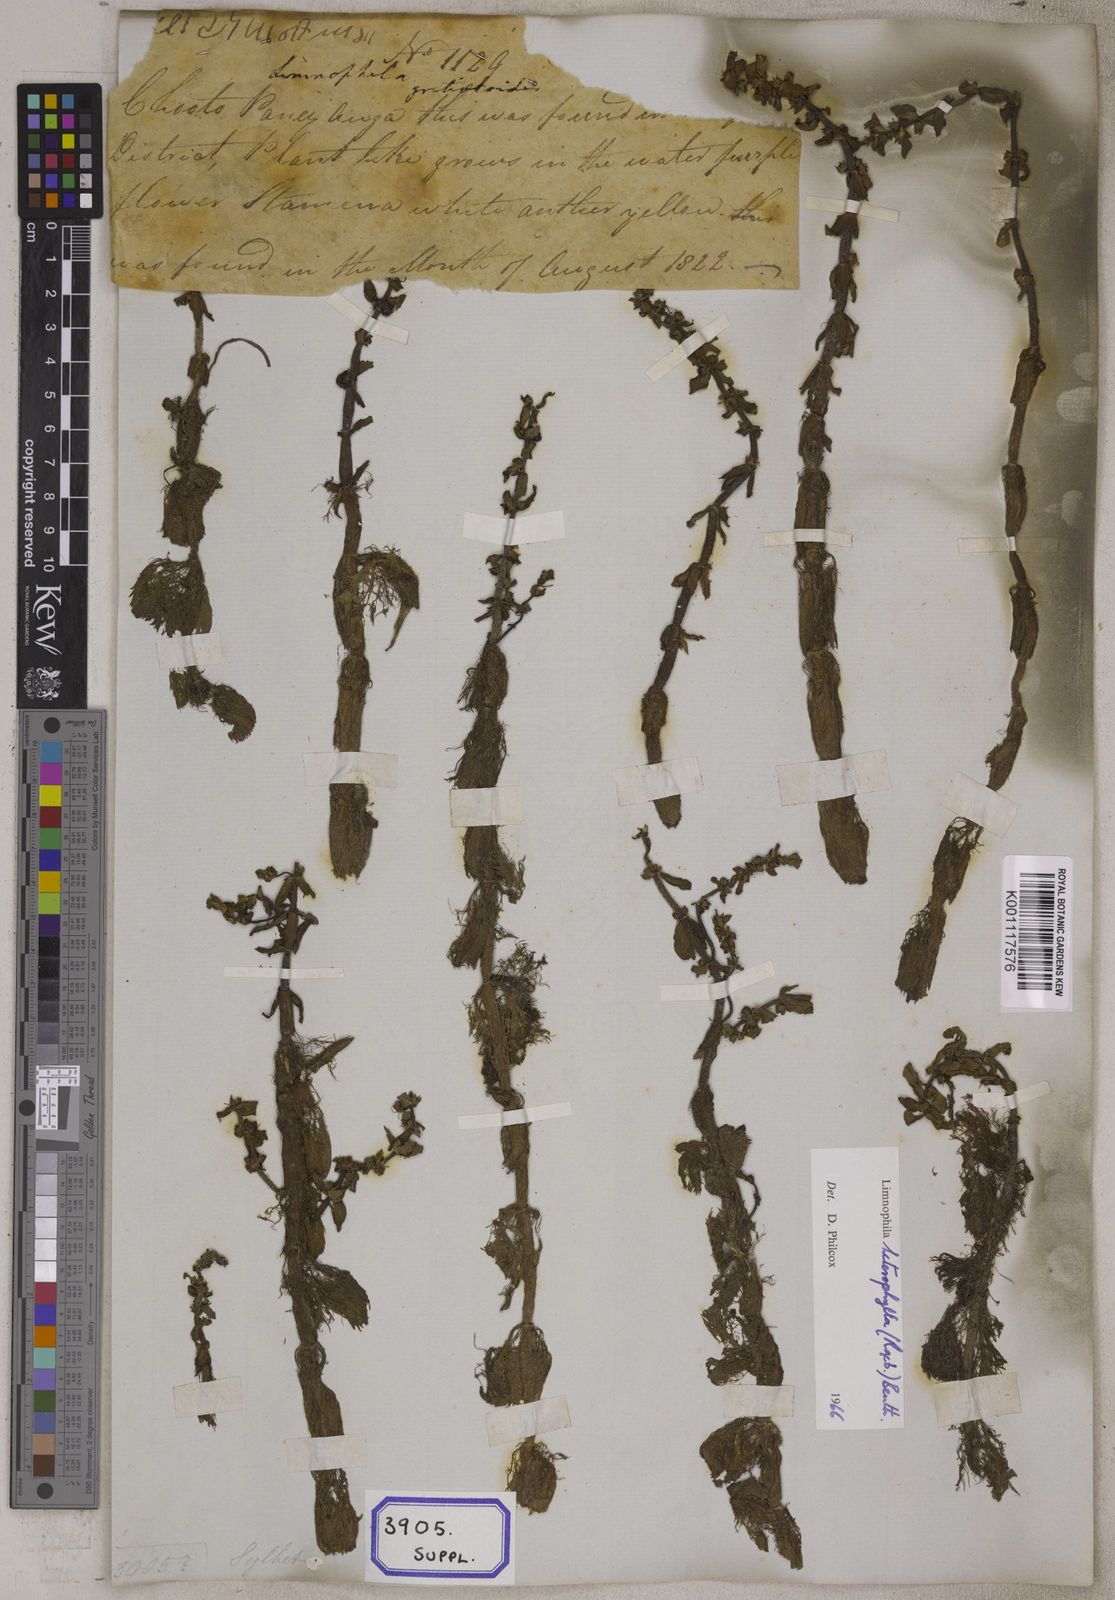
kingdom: Plantae
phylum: Tracheophyta
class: Magnoliopsida
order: Lamiales
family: Plantaginaceae
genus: Limnophila
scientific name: Limnophila heterophylla
